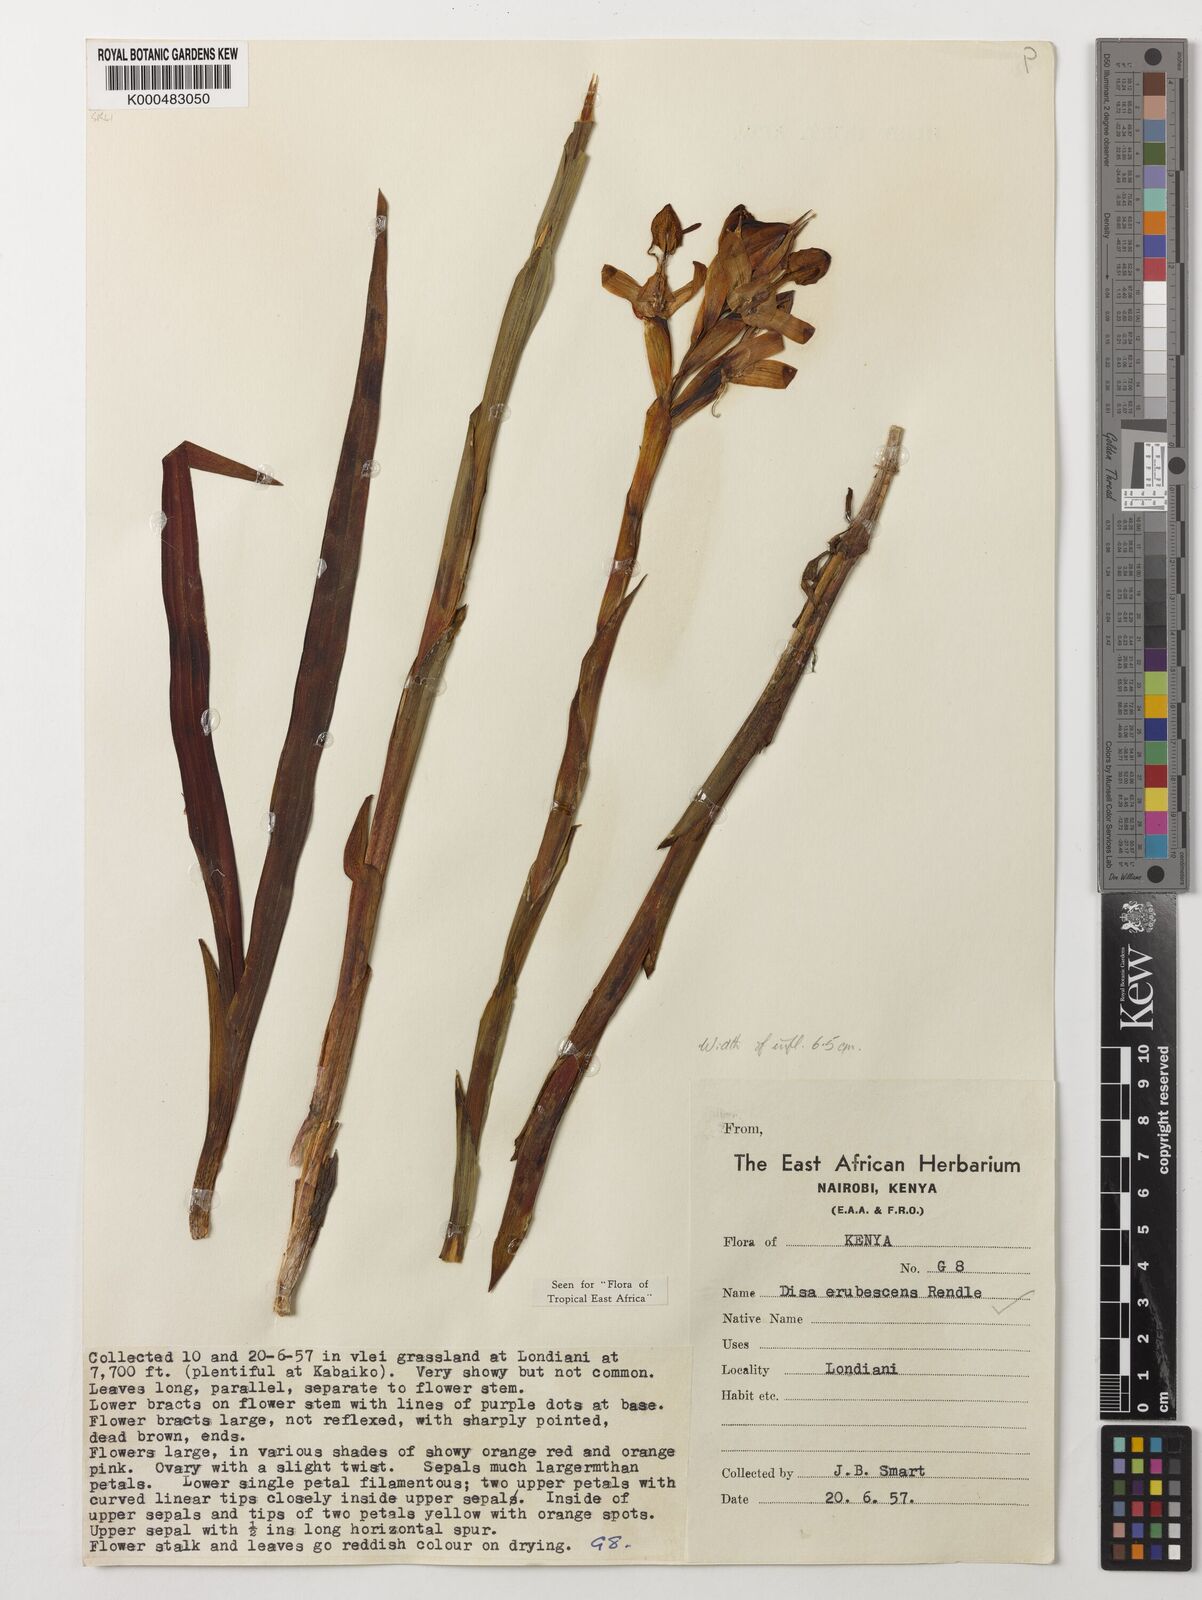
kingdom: Plantae
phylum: Tracheophyta
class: Liliopsida
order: Asparagales
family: Orchidaceae
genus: Disa
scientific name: Disa erubescens
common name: The rose disa
